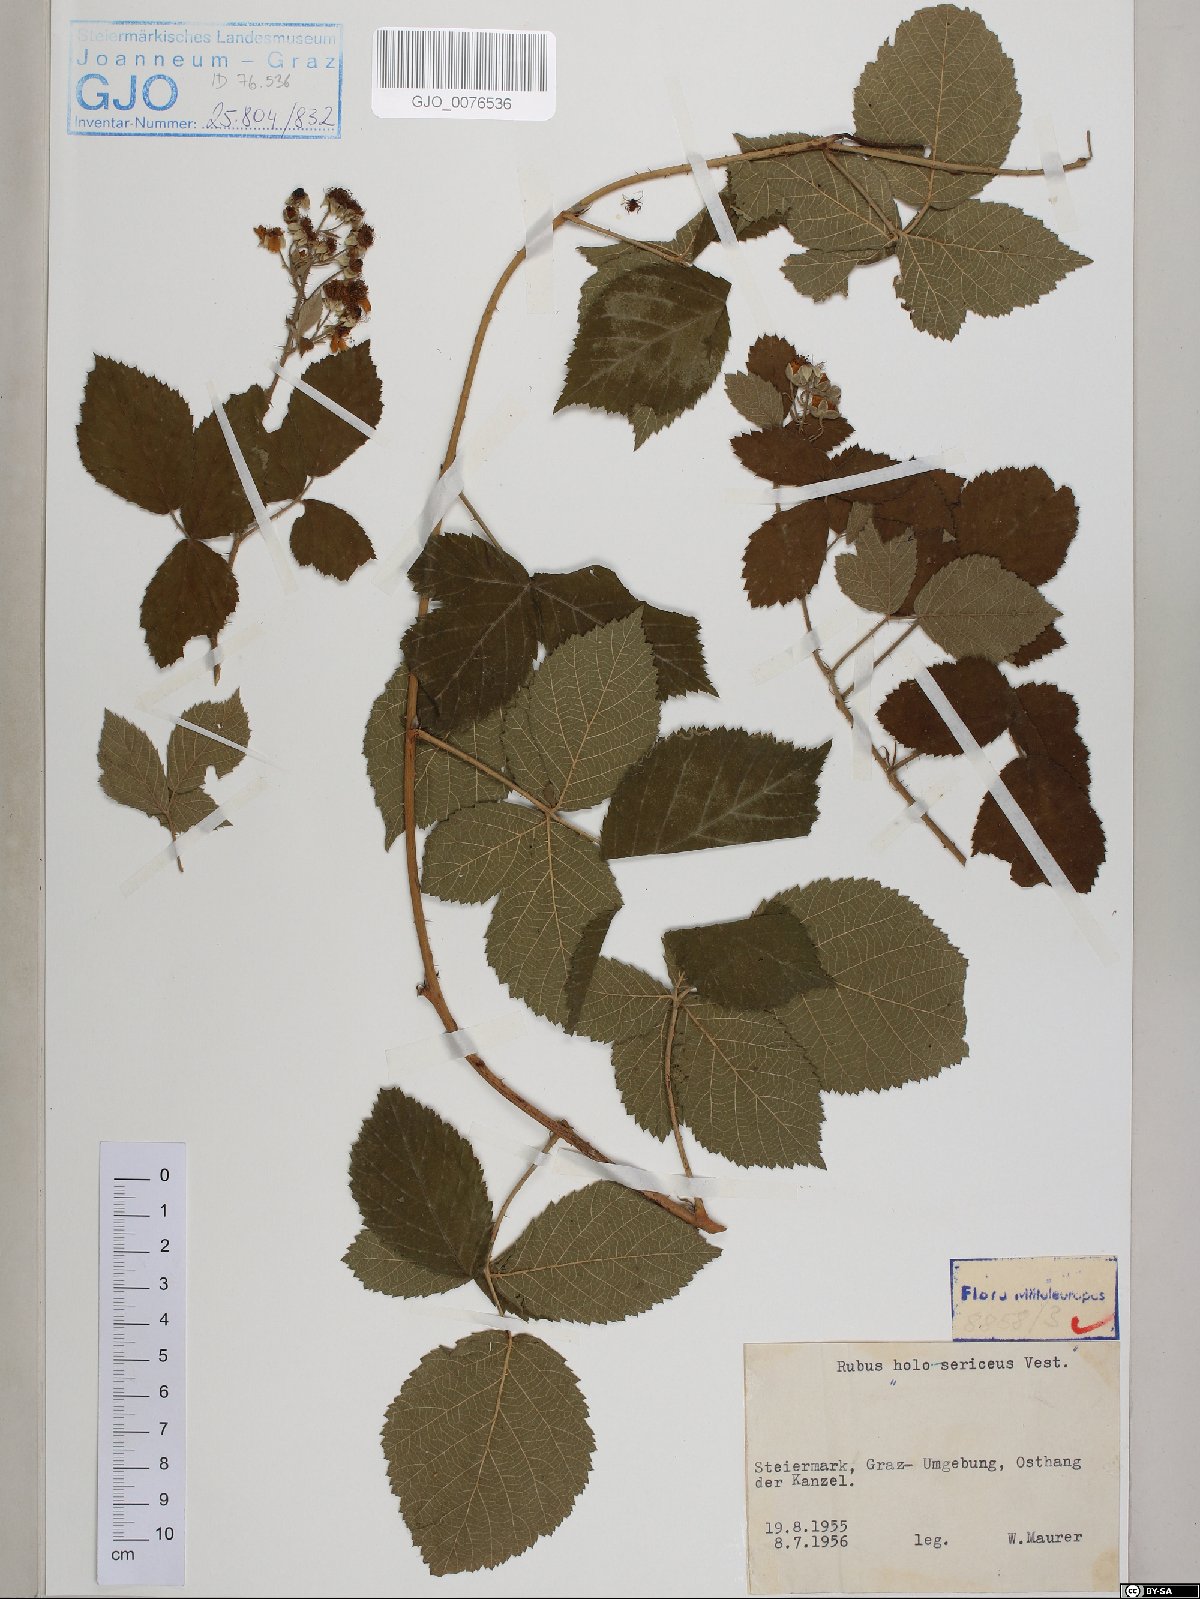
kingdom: Plantae
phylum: Tracheophyta
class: Magnoliopsida
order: Rosales
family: Rosaceae
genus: Rubus
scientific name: Rubus holosericeus
